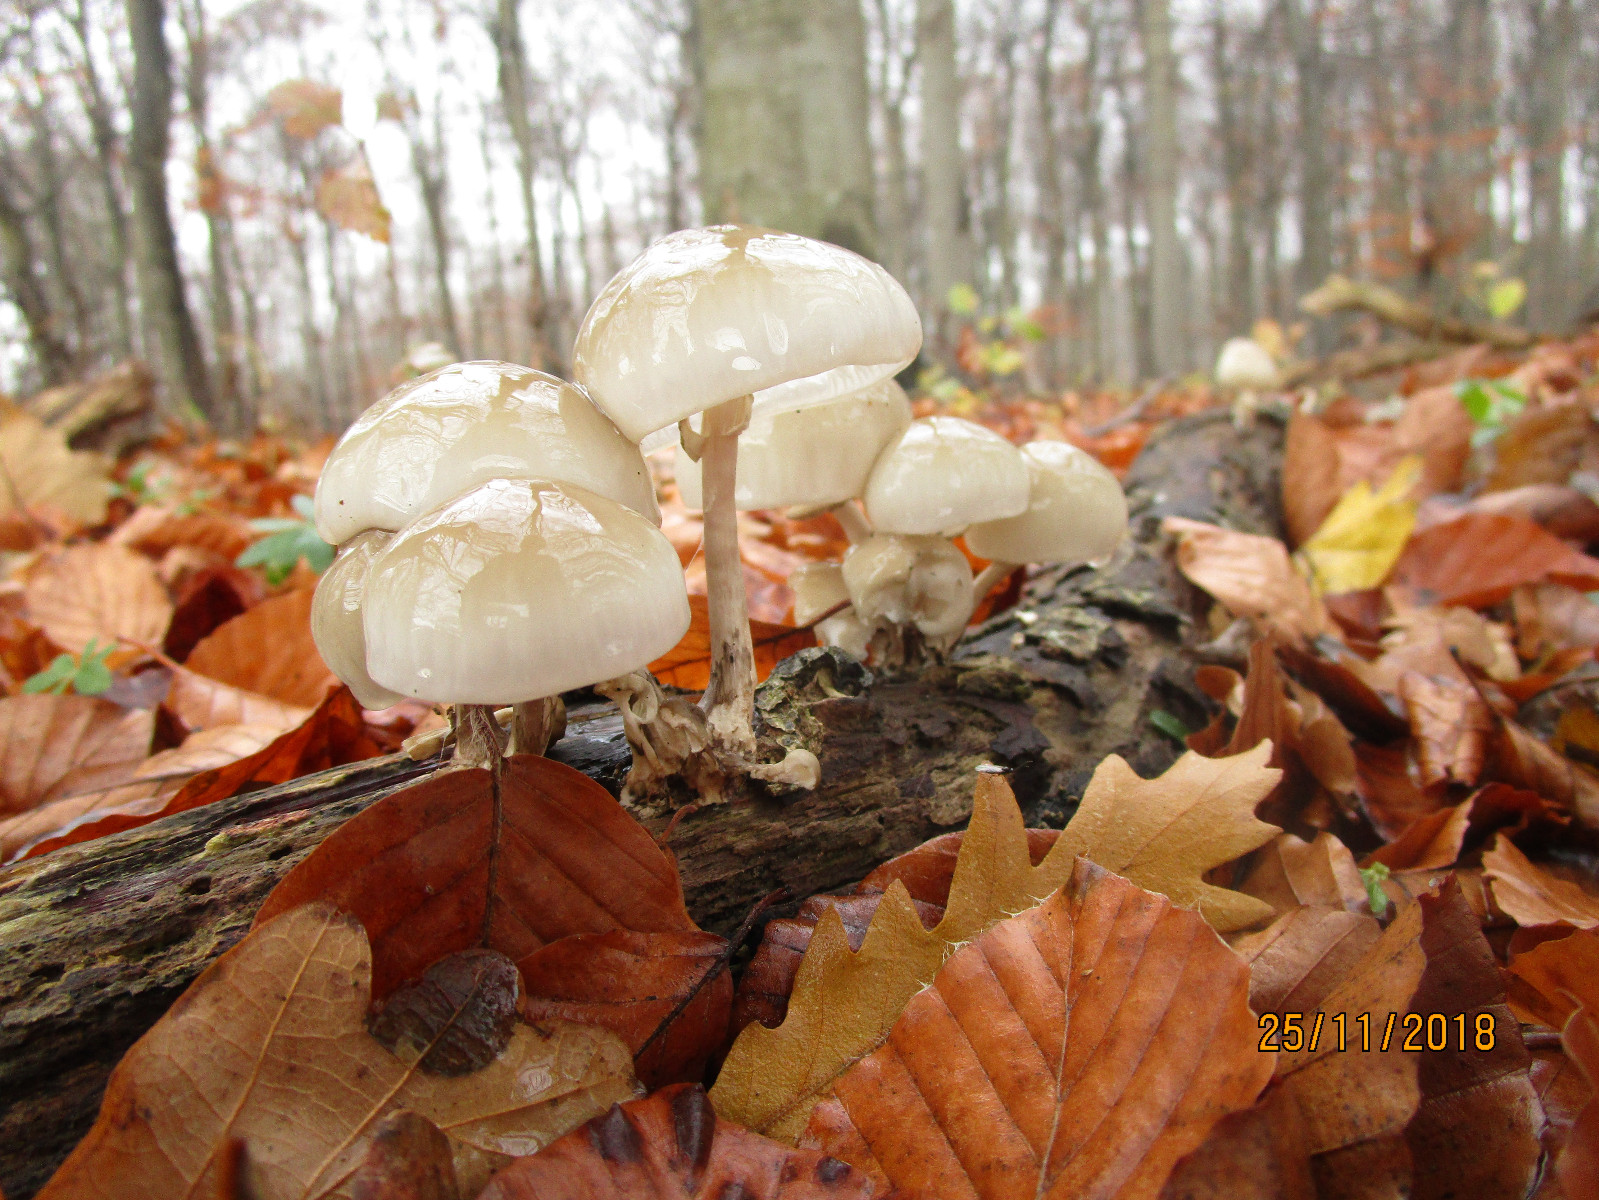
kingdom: Fungi
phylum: Basidiomycota
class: Agaricomycetes
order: Agaricales
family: Physalacriaceae
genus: Mucidula
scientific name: Mucidula mucida
